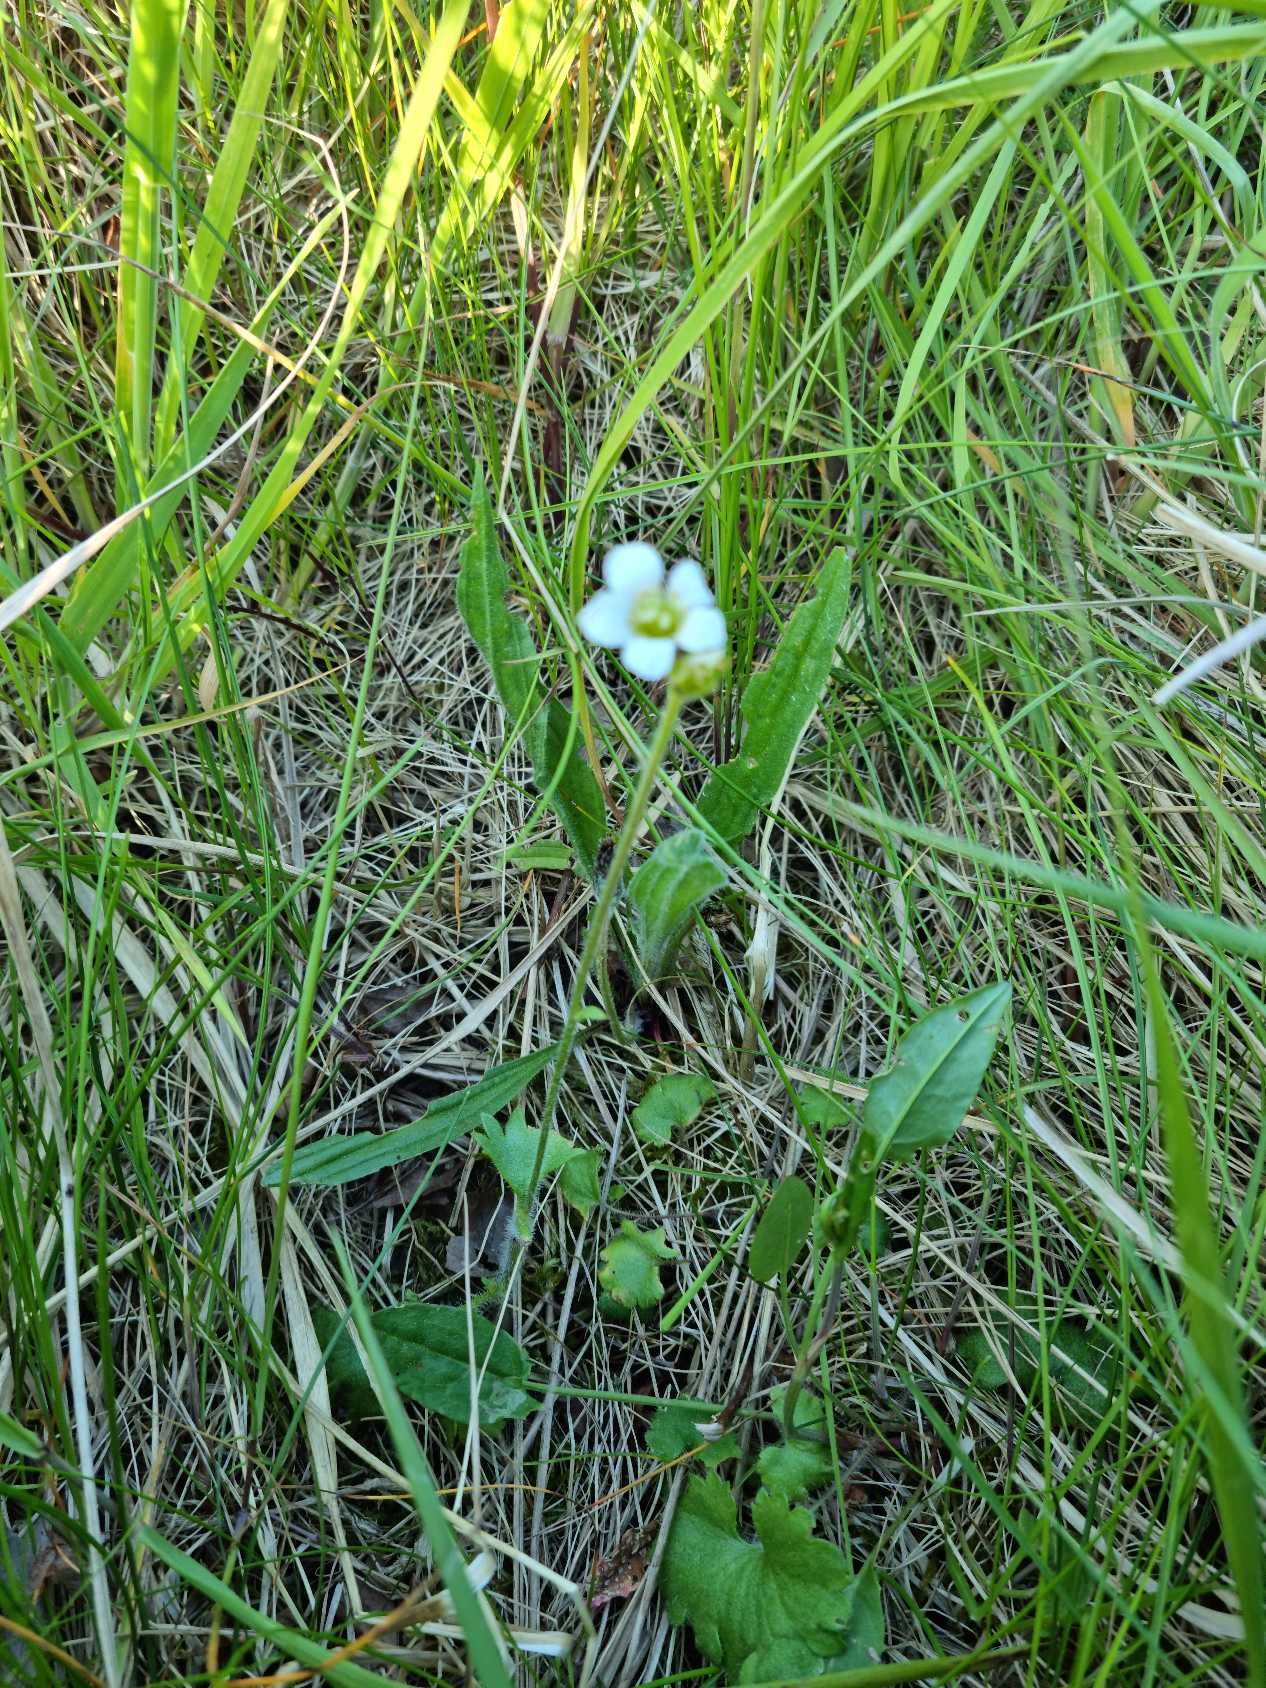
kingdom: Plantae
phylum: Tracheophyta
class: Magnoliopsida
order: Saxifragales
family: Saxifragaceae
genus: Saxifraga
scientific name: Saxifraga granulata
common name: Kornet stenbræk
